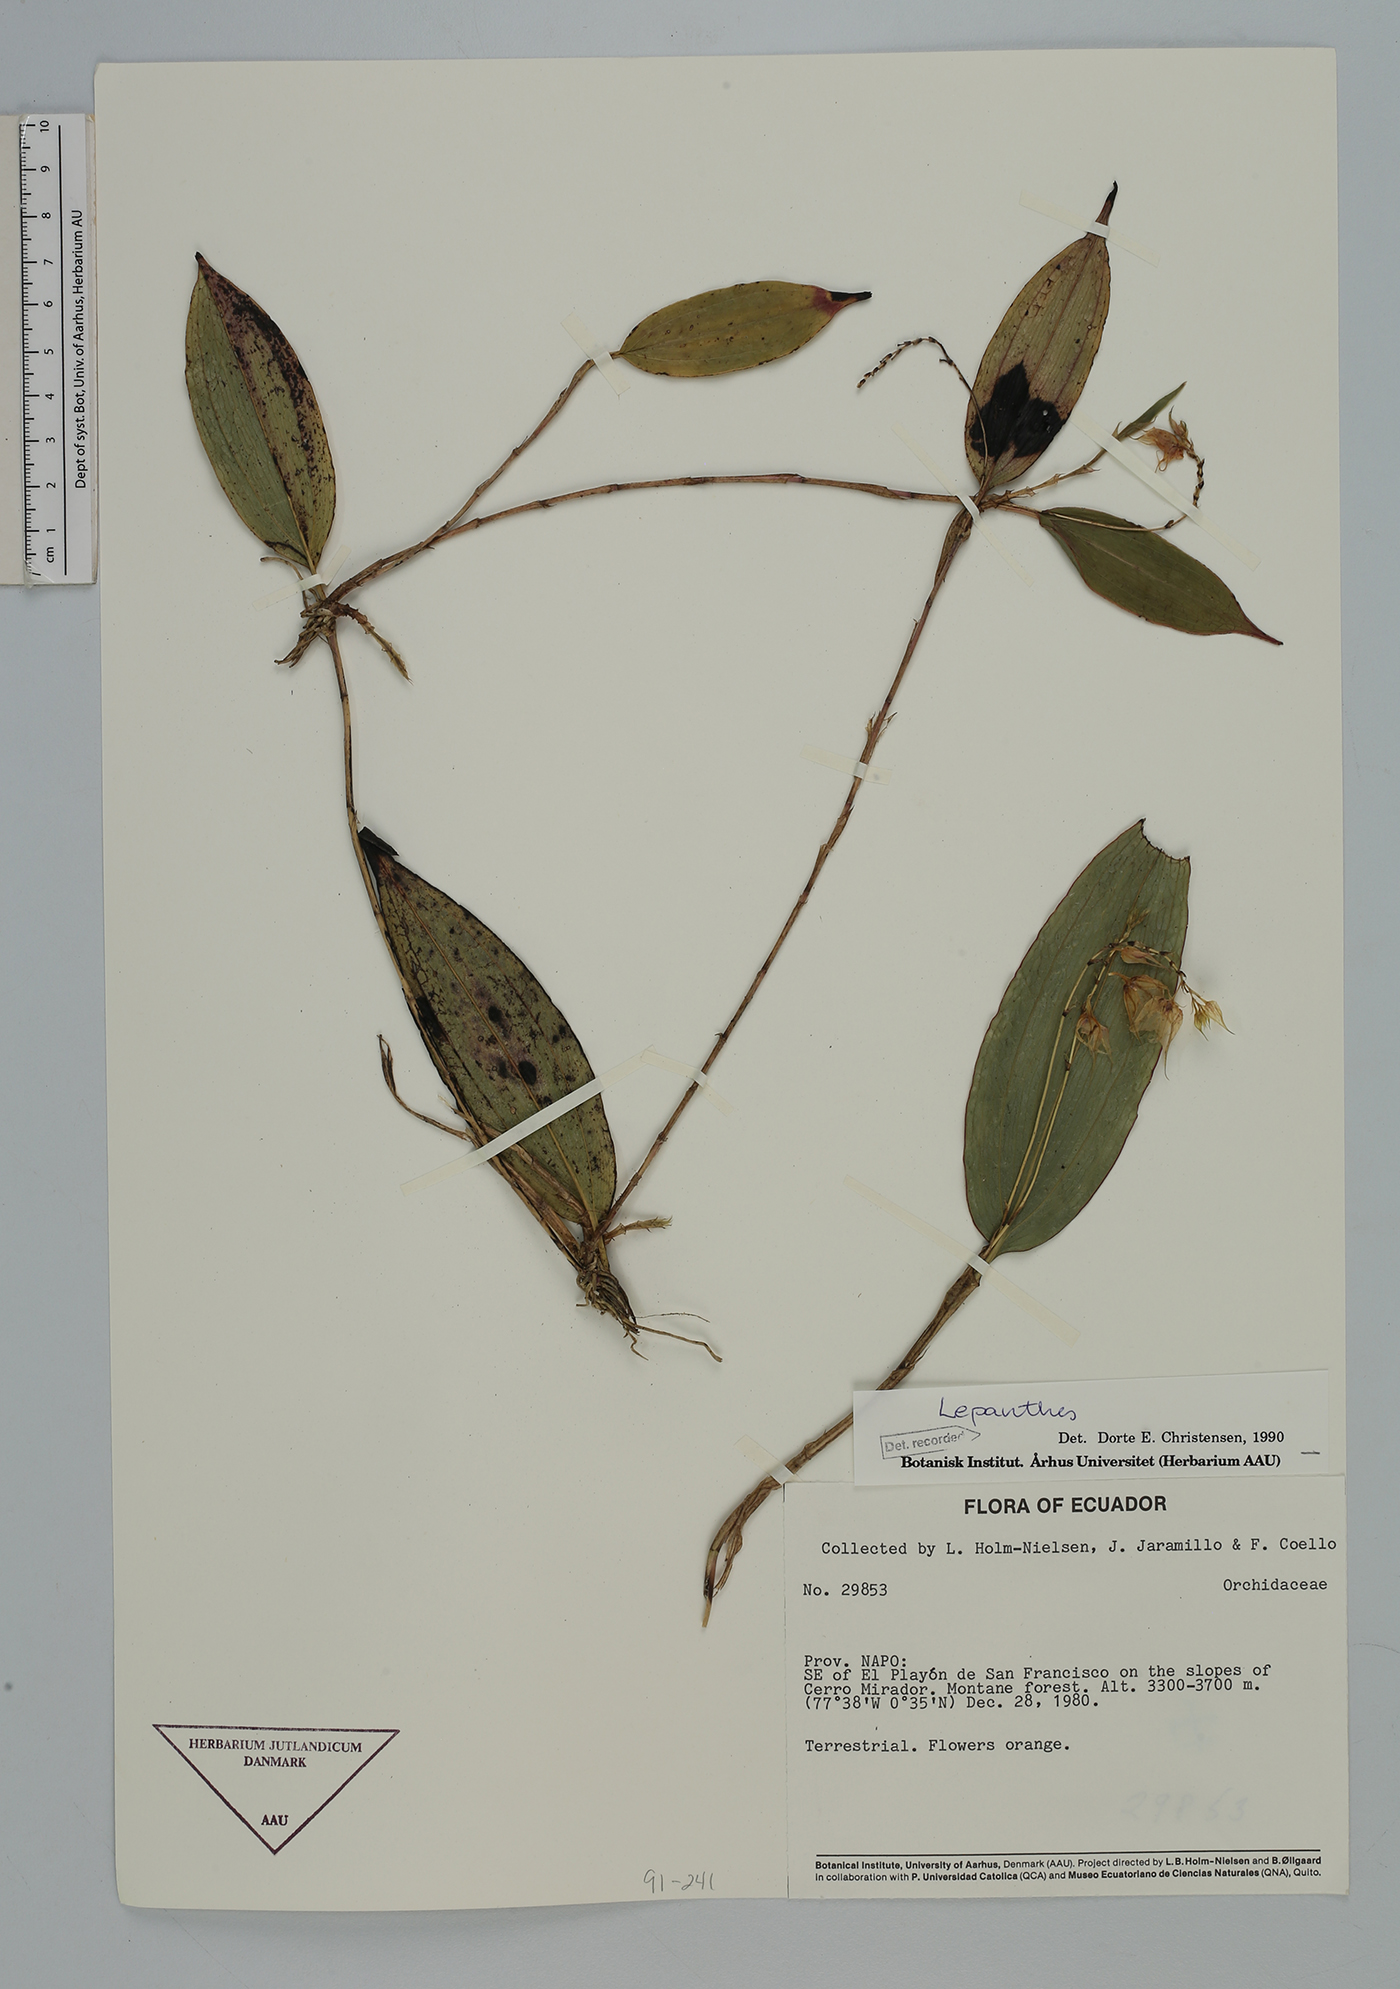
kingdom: Plantae
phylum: Tracheophyta
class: Liliopsida
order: Asparagales
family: Orchidaceae
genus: Lepanthes
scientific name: Lepanthes
